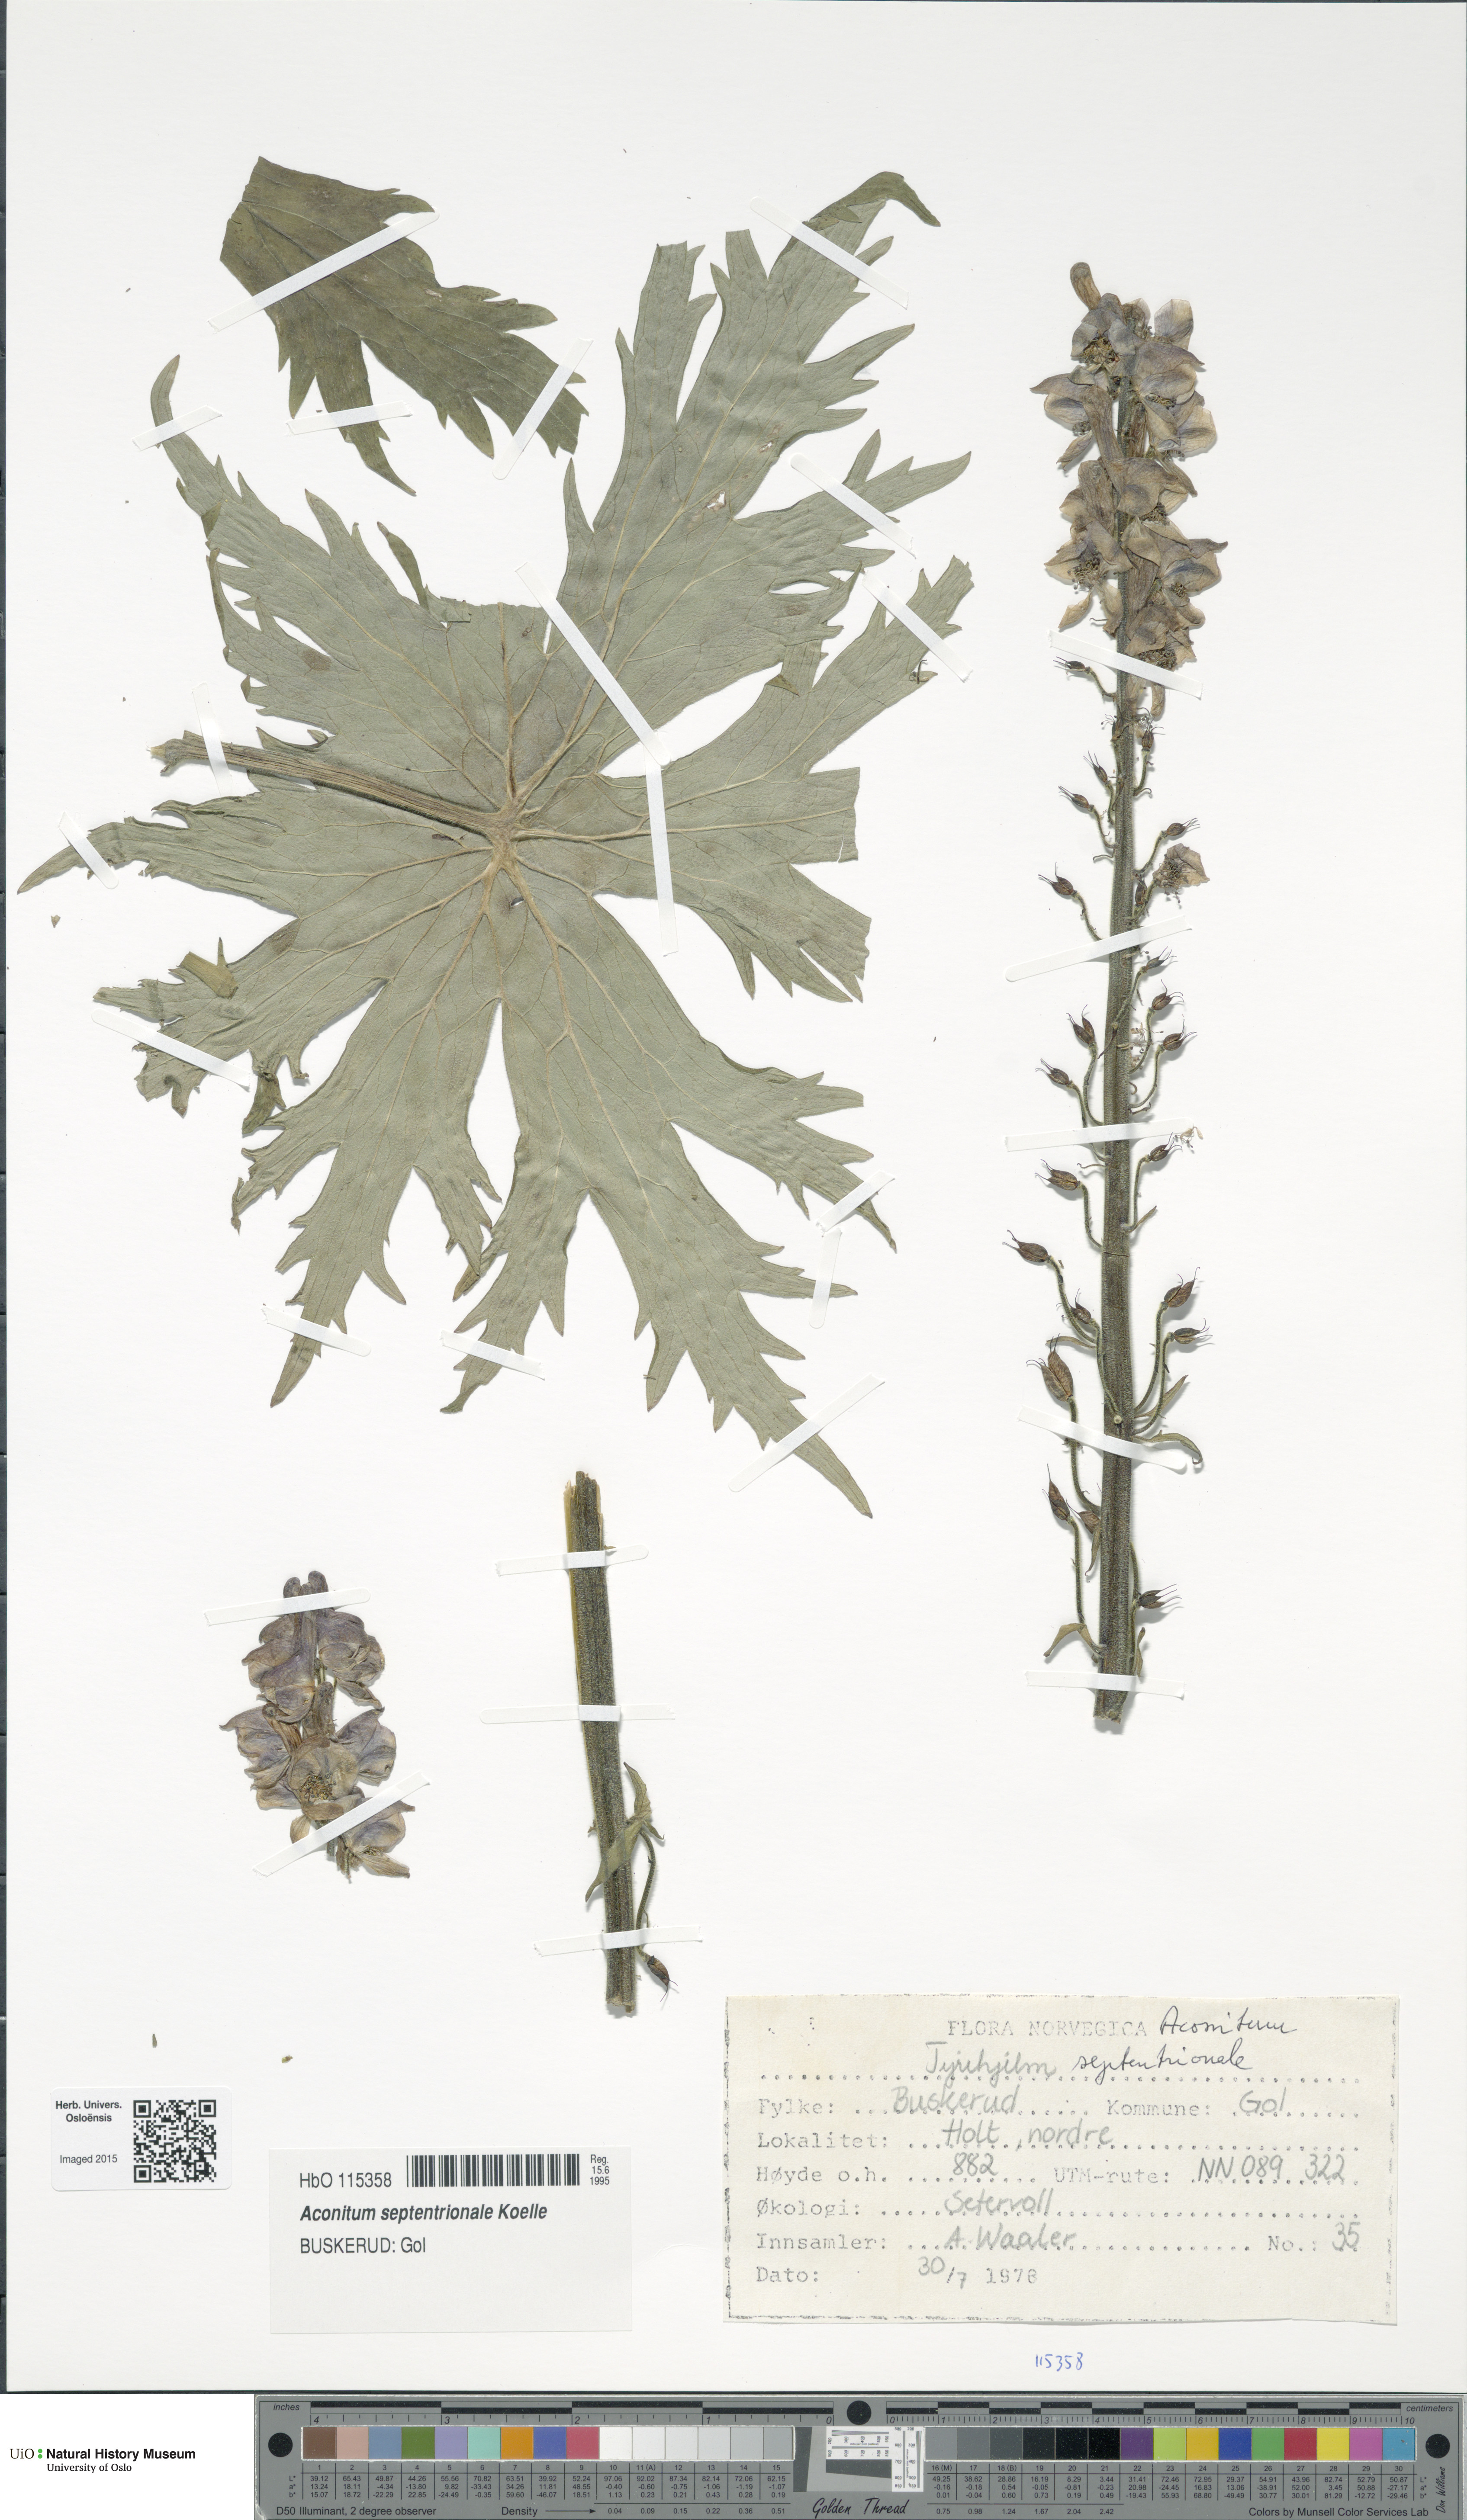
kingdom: Plantae
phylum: Tracheophyta
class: Magnoliopsida
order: Ranunculales
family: Ranunculaceae
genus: Aconitum
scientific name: Aconitum septentrionale
